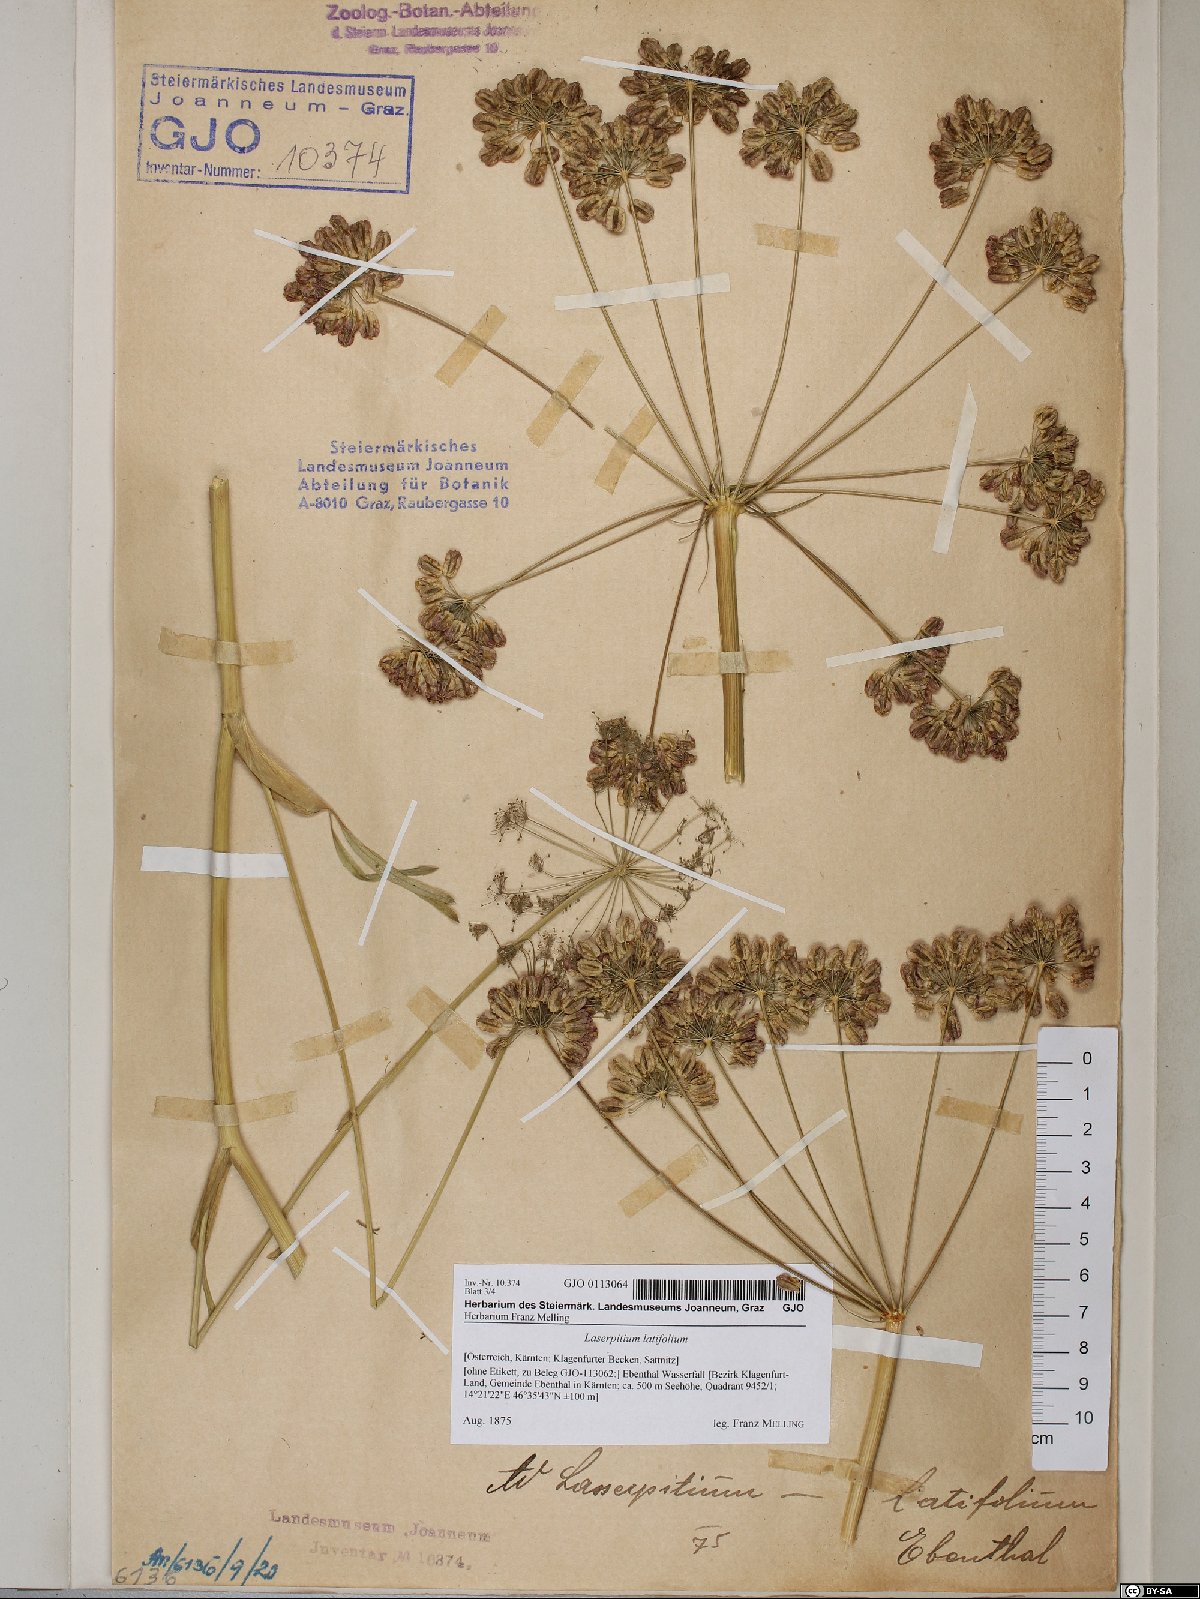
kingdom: Plantae
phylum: Tracheophyta
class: Magnoliopsida
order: Apiales
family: Apiaceae
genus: Laserpitium
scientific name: Laserpitium latifolium
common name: Broadleaf sermountain
